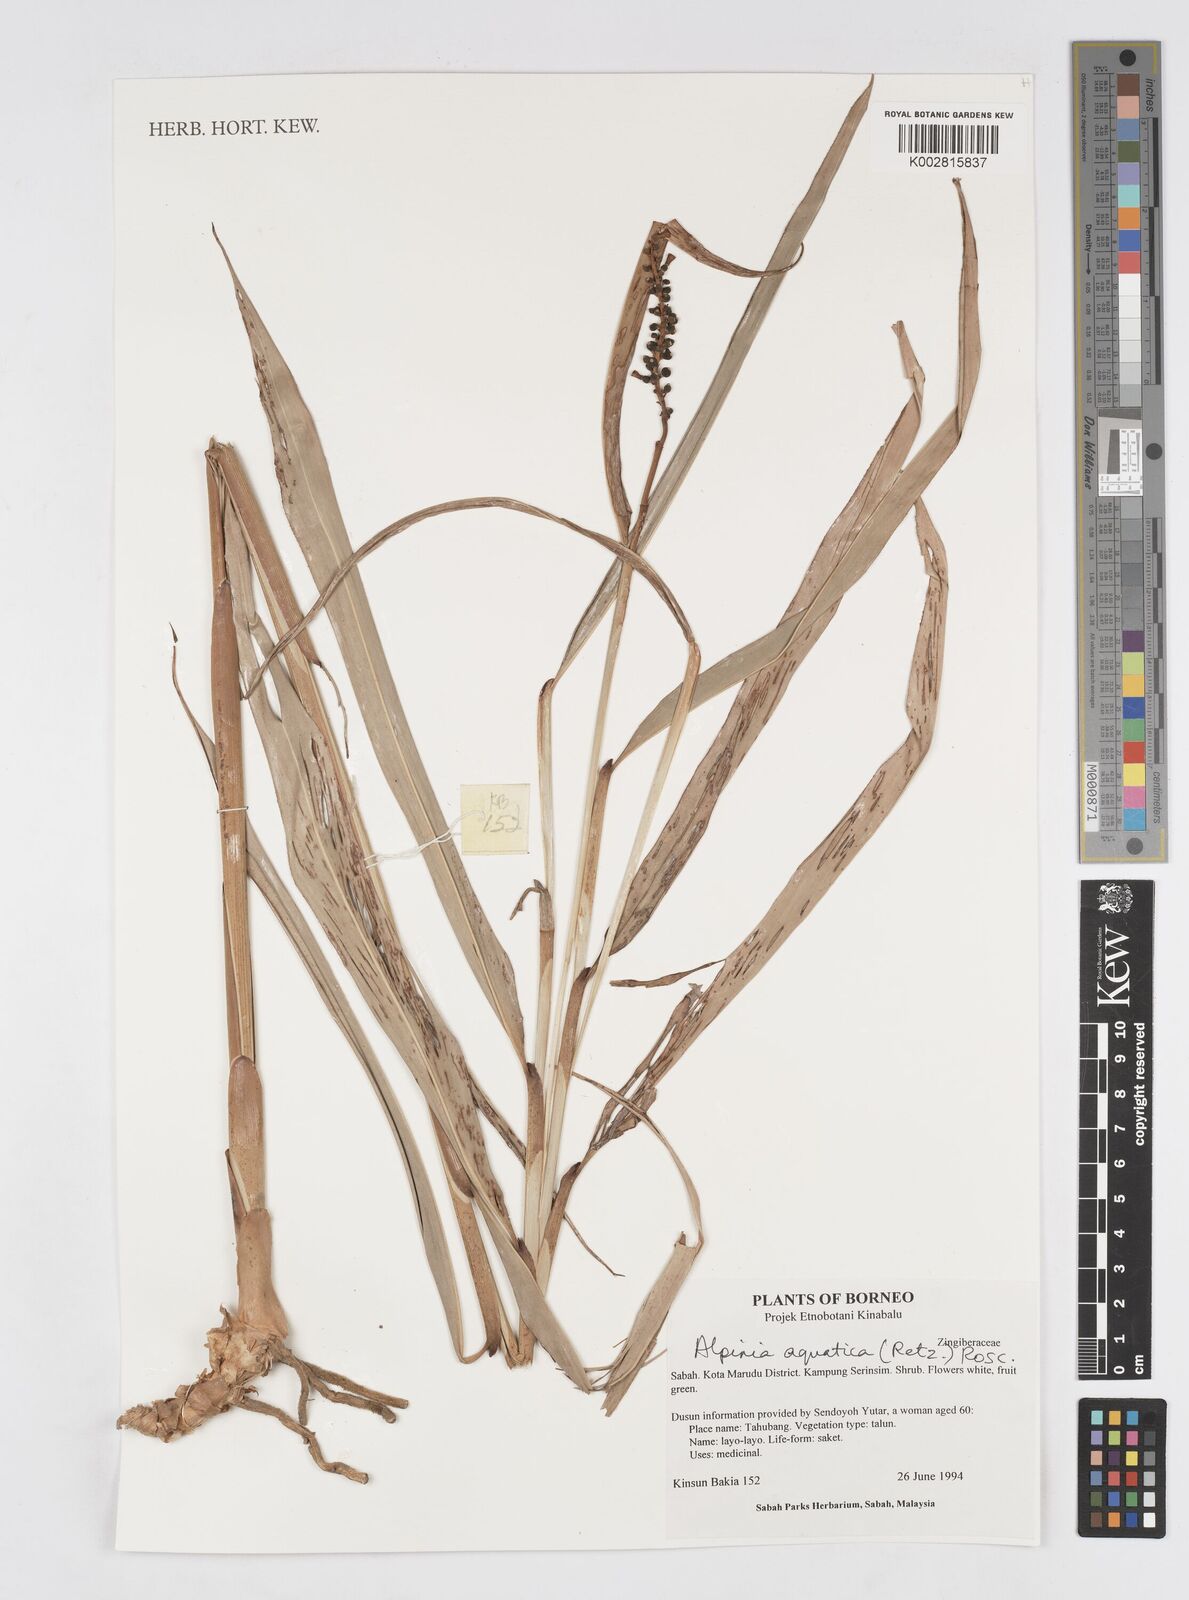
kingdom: Plantae
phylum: Tracheophyta
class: Liliopsida
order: Zingiberales
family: Zingiberaceae
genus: Alpinia
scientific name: Alpinia aquatica
